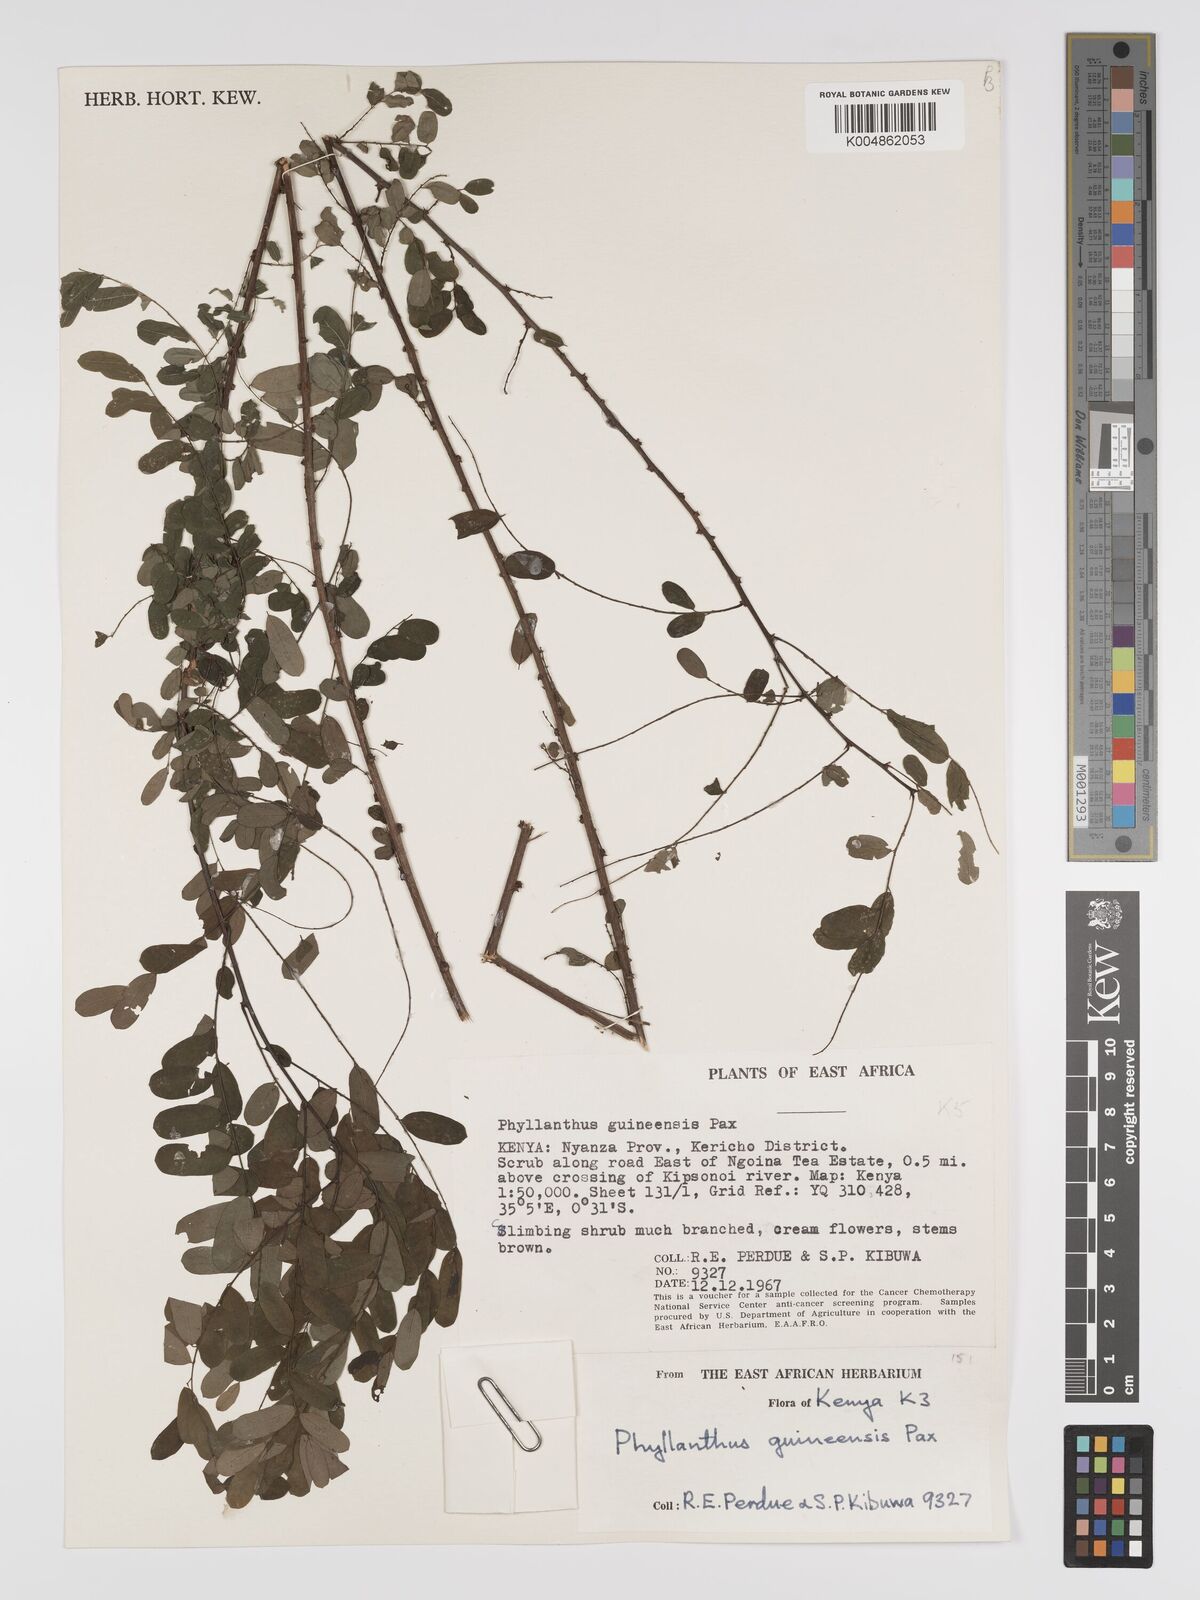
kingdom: Plantae
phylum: Tracheophyta
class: Magnoliopsida
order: Malpighiales
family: Phyllanthaceae
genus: Phyllanthus
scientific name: Phyllanthus ovalifolius
